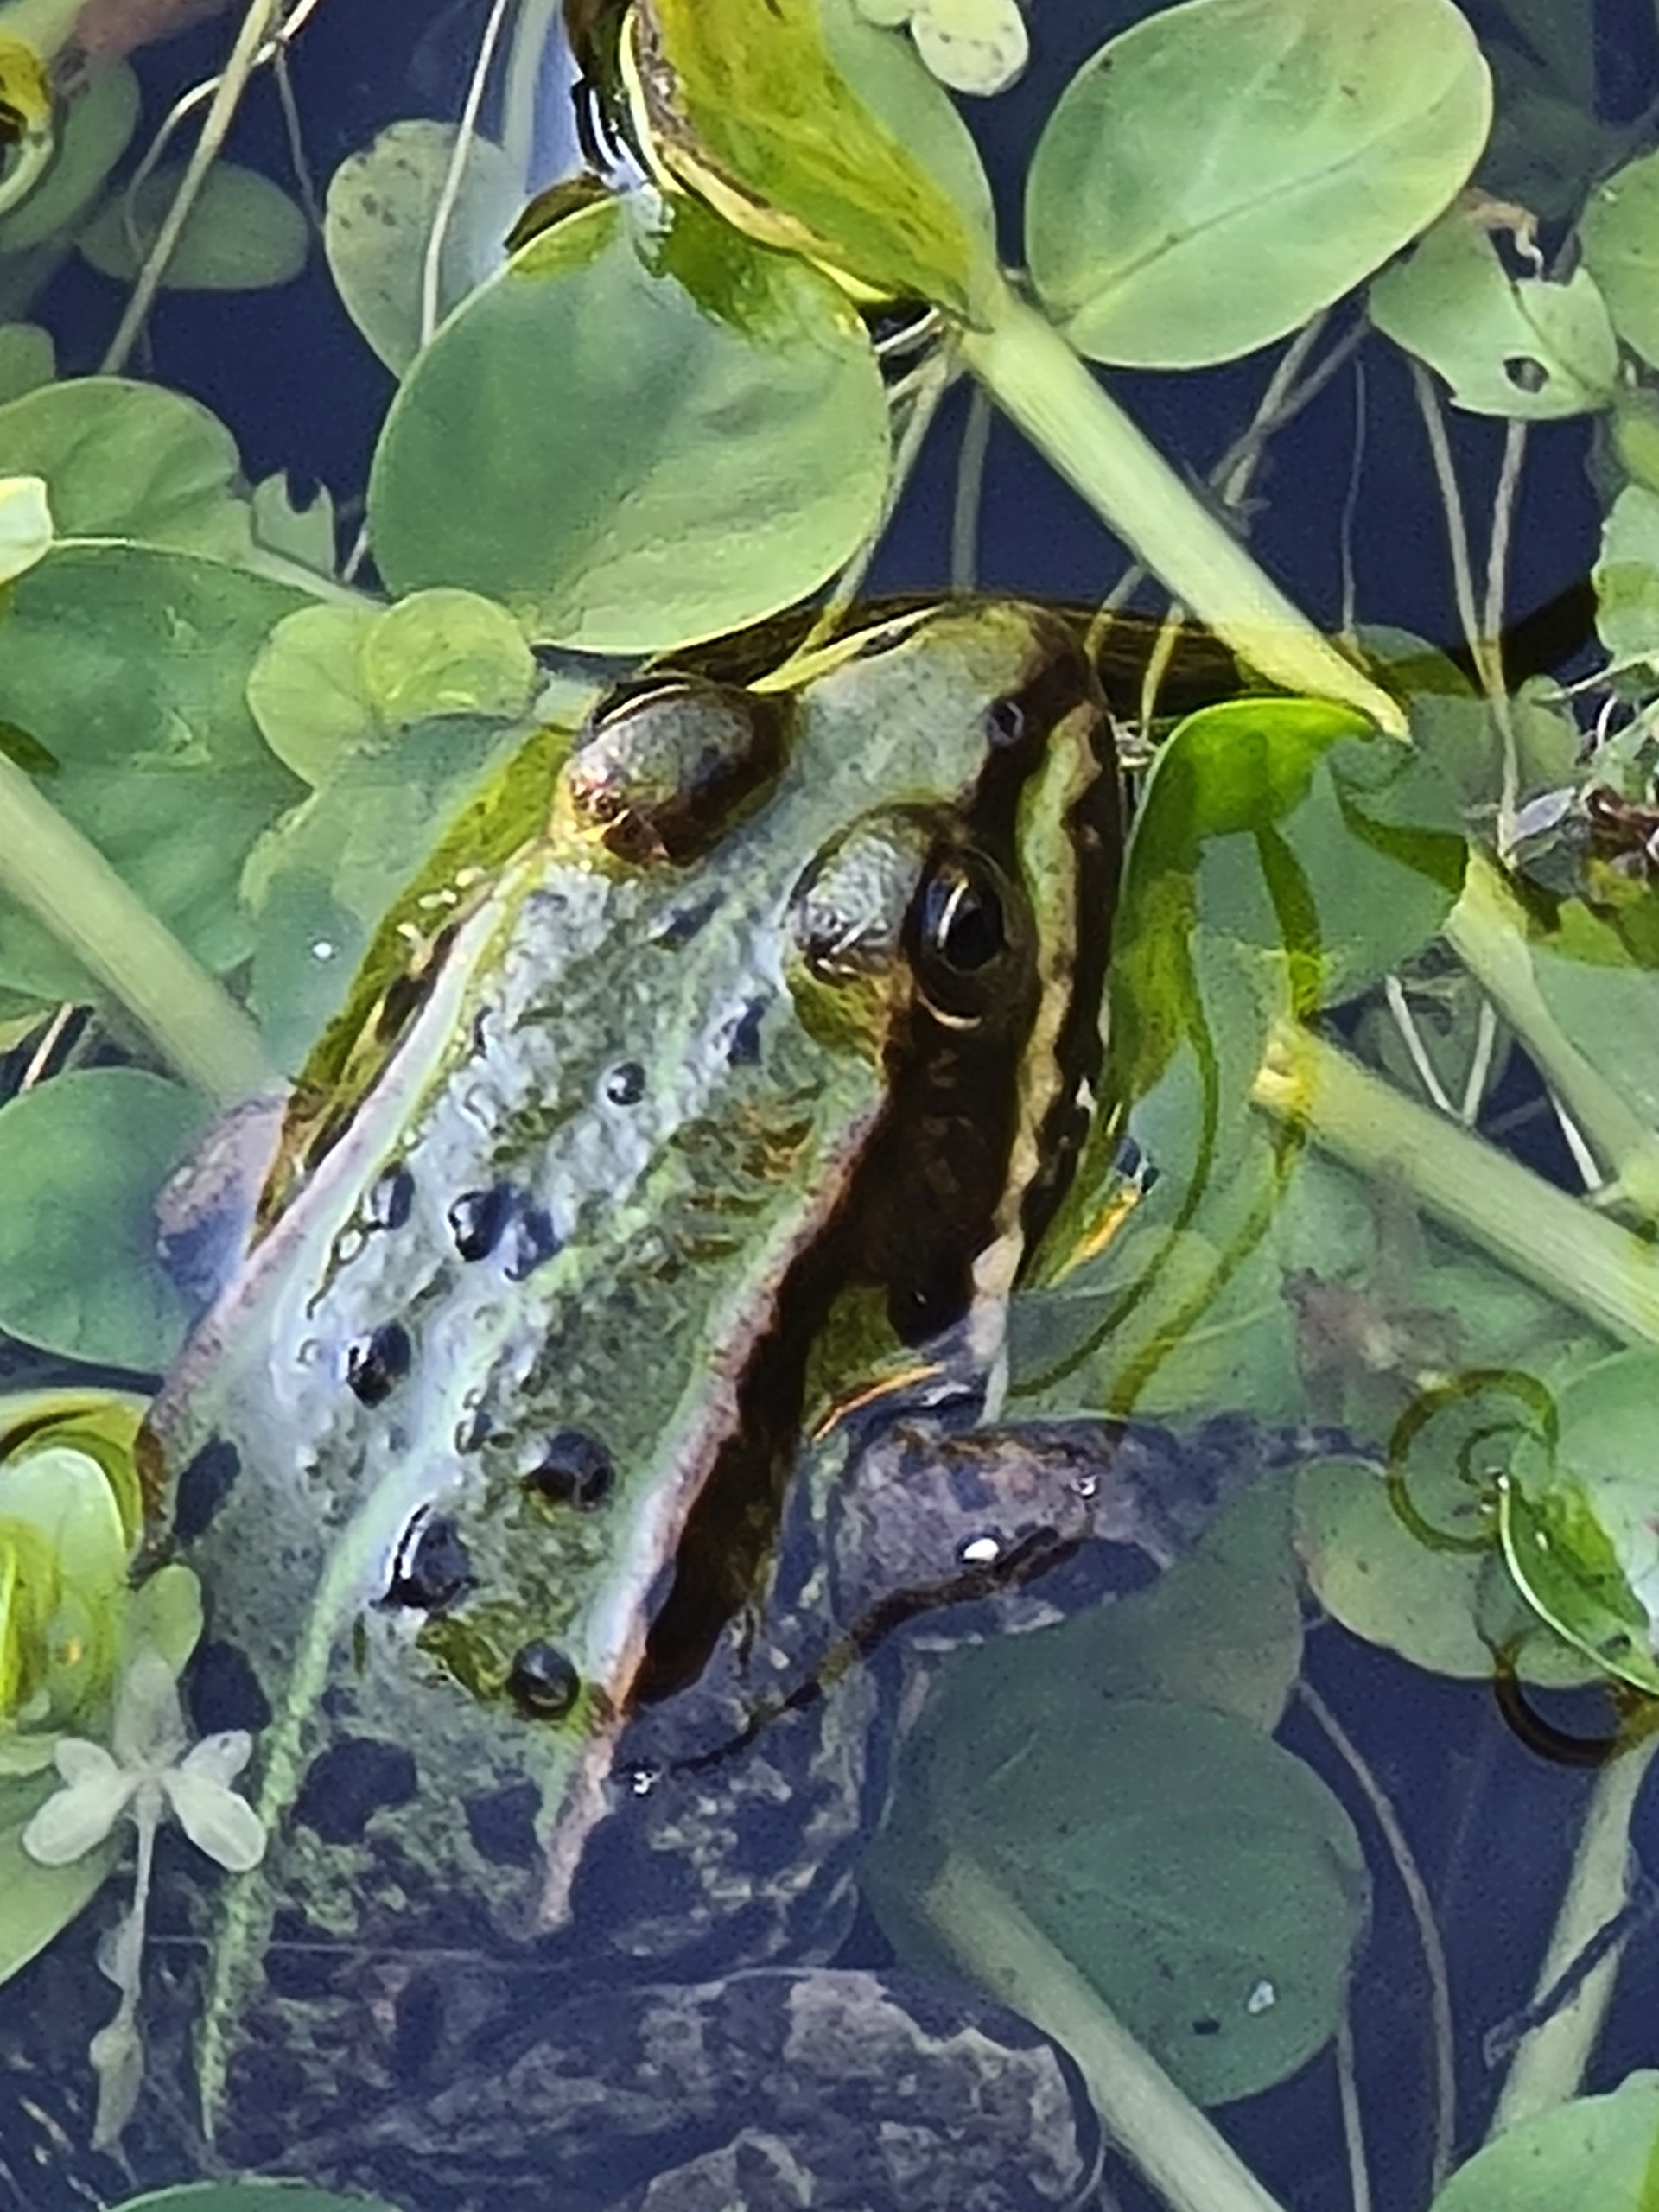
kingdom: Animalia
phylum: Chordata
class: Amphibia
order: Anura
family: Ranidae
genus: Pelophylax
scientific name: Pelophylax lessonae
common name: Grøn frø
